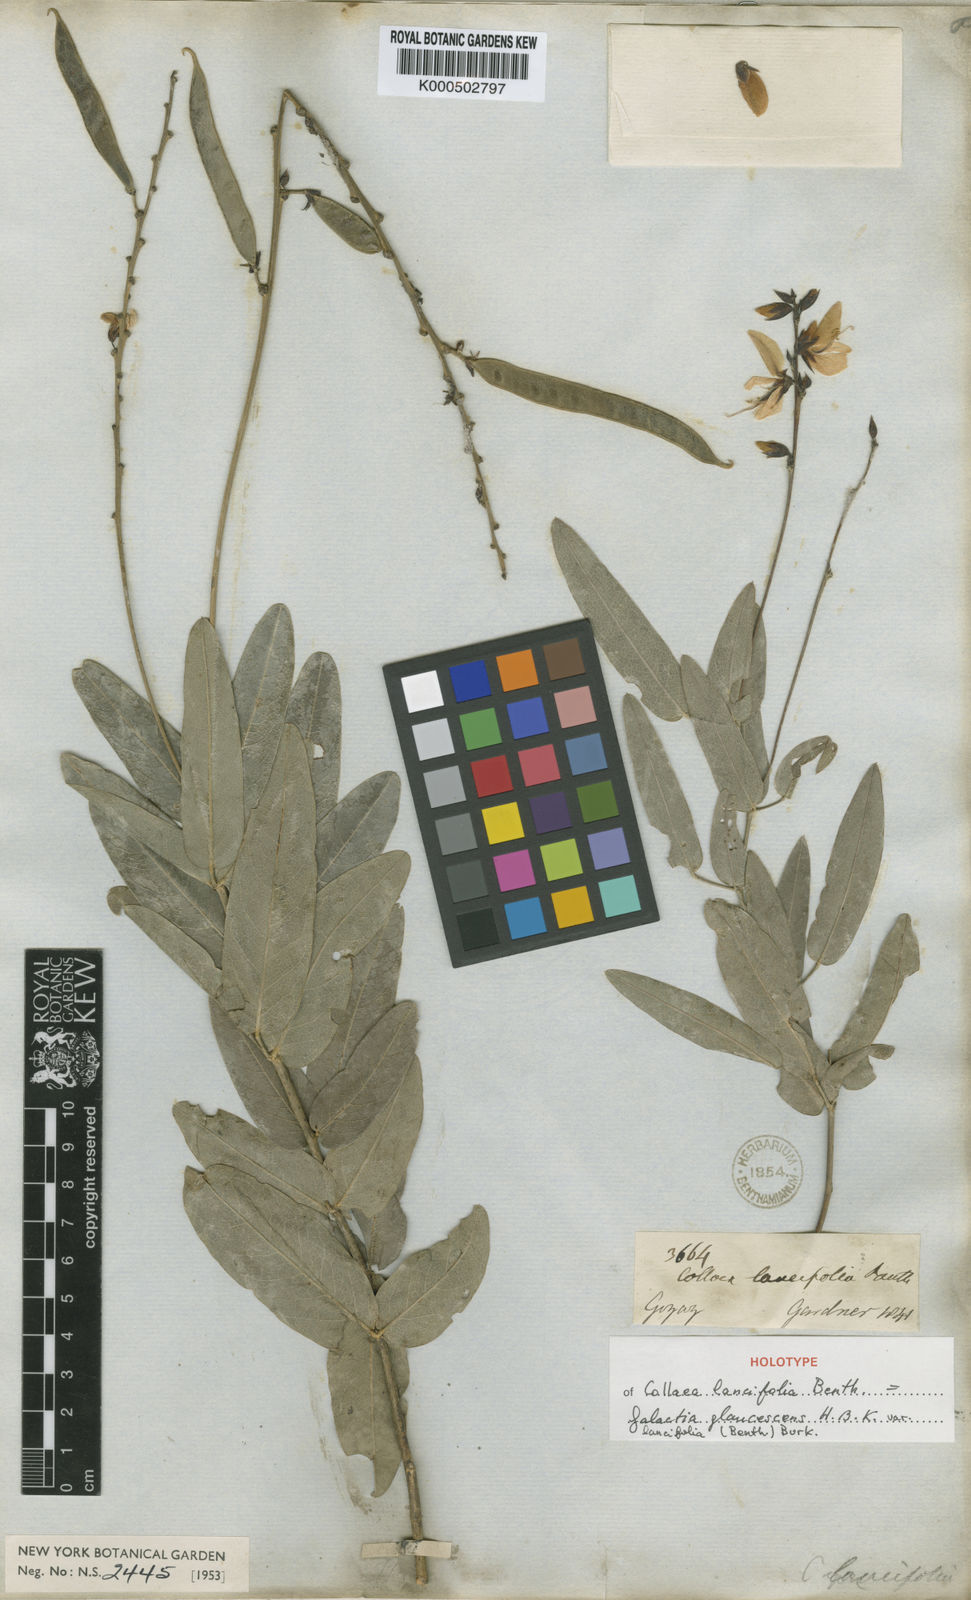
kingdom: Plantae
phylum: Tracheophyta
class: Magnoliopsida
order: Fabales
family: Fabaceae
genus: Galactia
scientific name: Galactia
